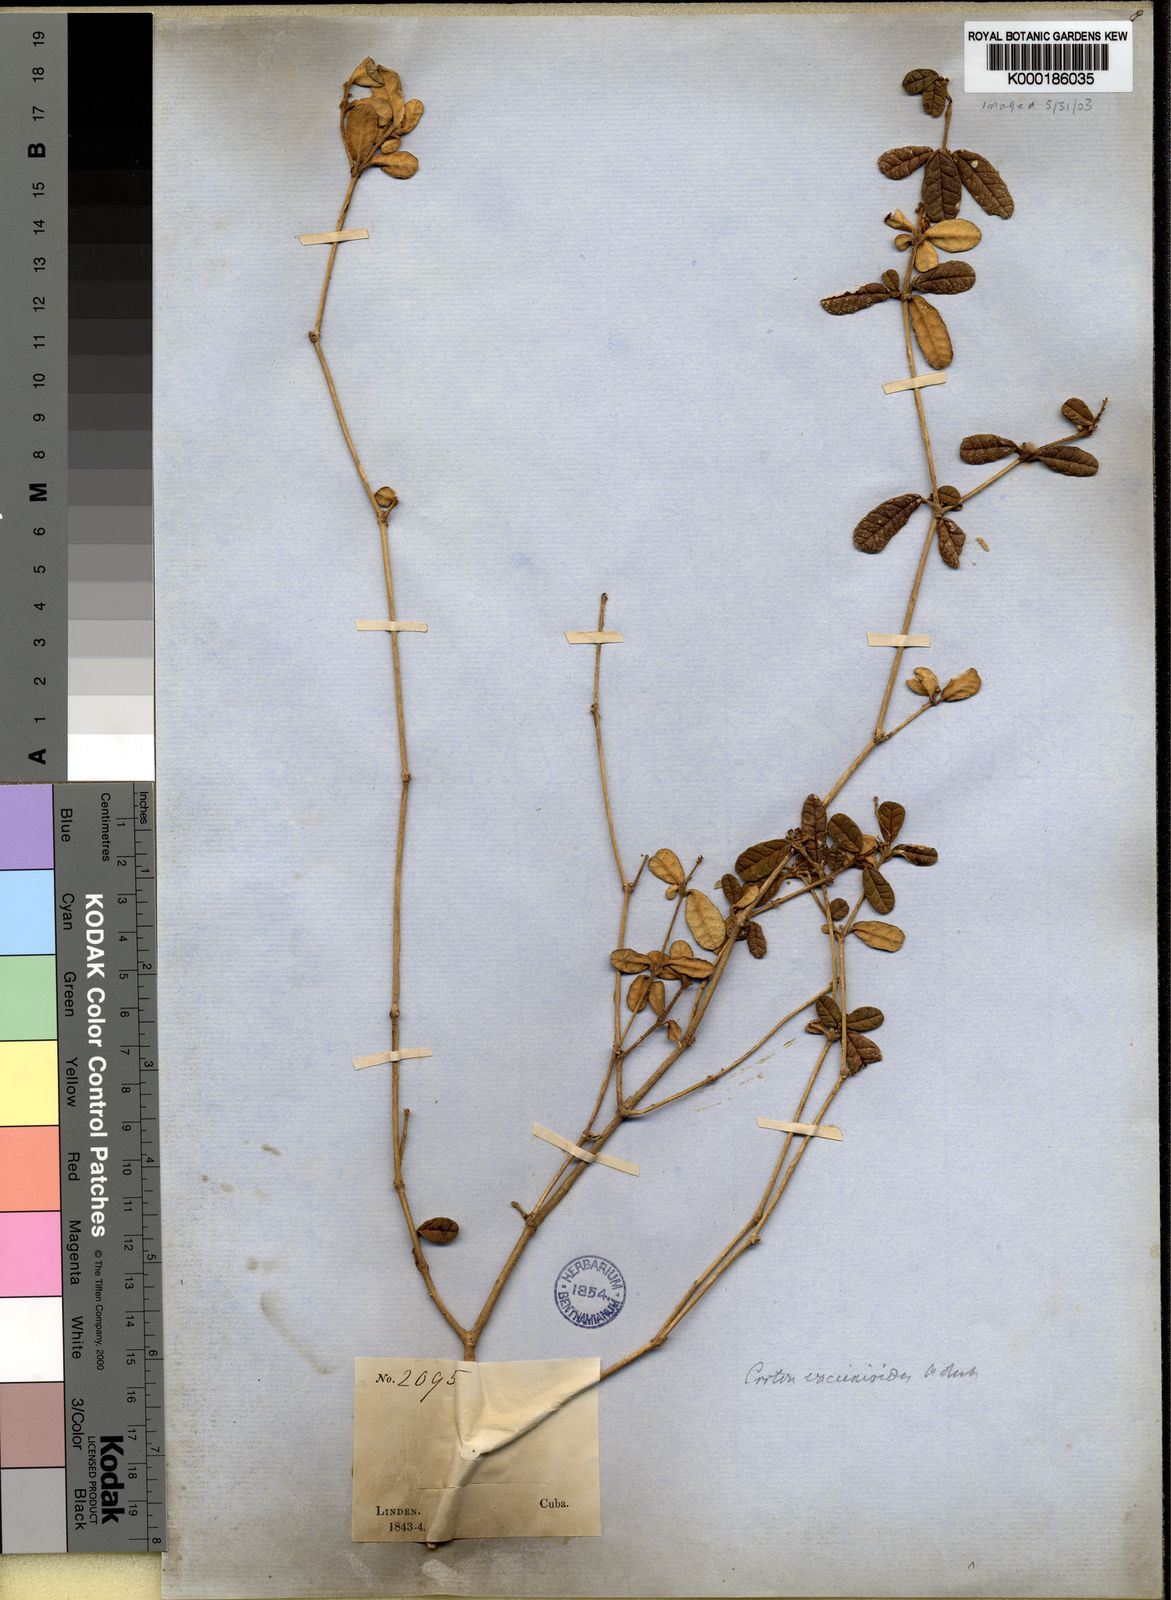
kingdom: Plantae
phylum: Tracheophyta
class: Magnoliopsida
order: Malpighiales
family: Euphorbiaceae
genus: Croton
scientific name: Croton vaccinioides
